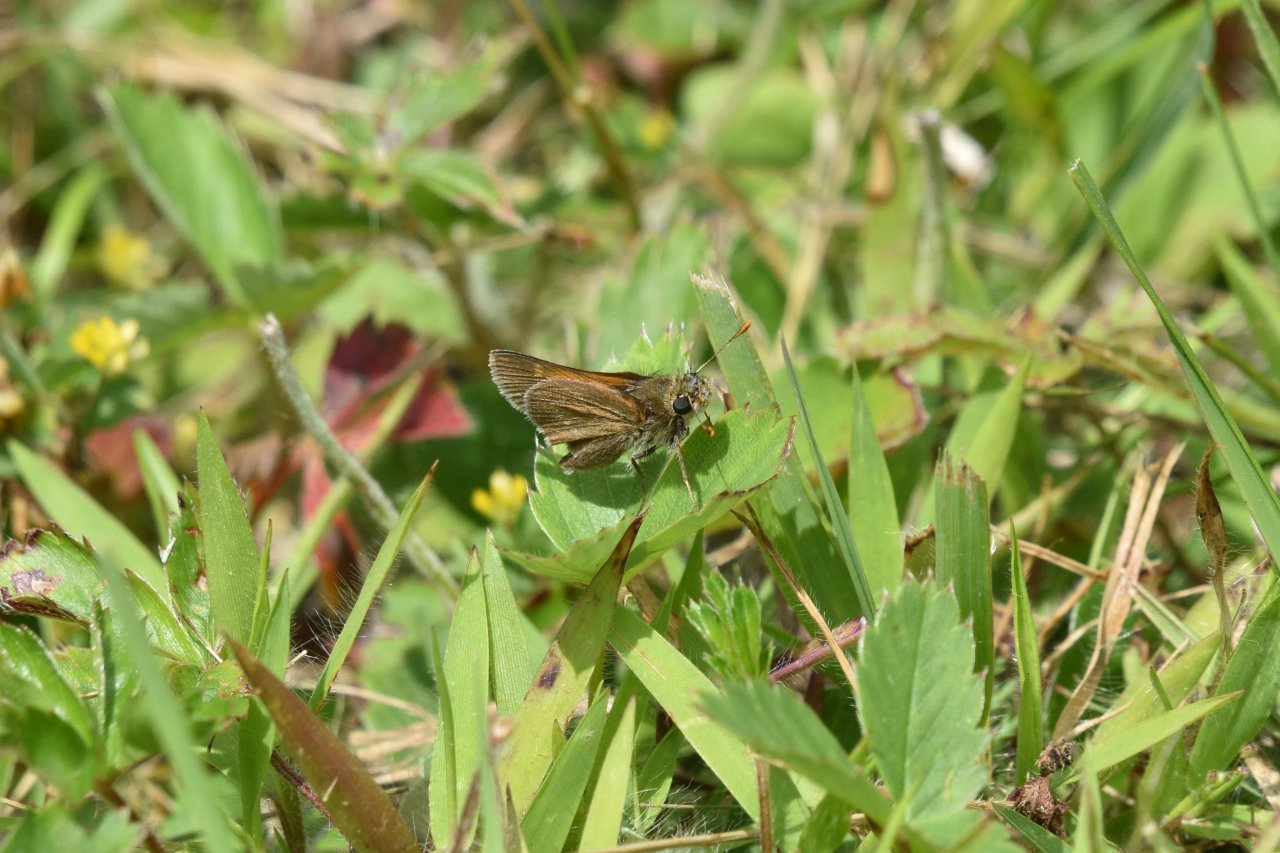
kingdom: Animalia
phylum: Arthropoda
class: Insecta
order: Lepidoptera
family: Hesperiidae
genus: Polites
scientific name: Polites themistocles
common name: Tawny-edged Skipper
